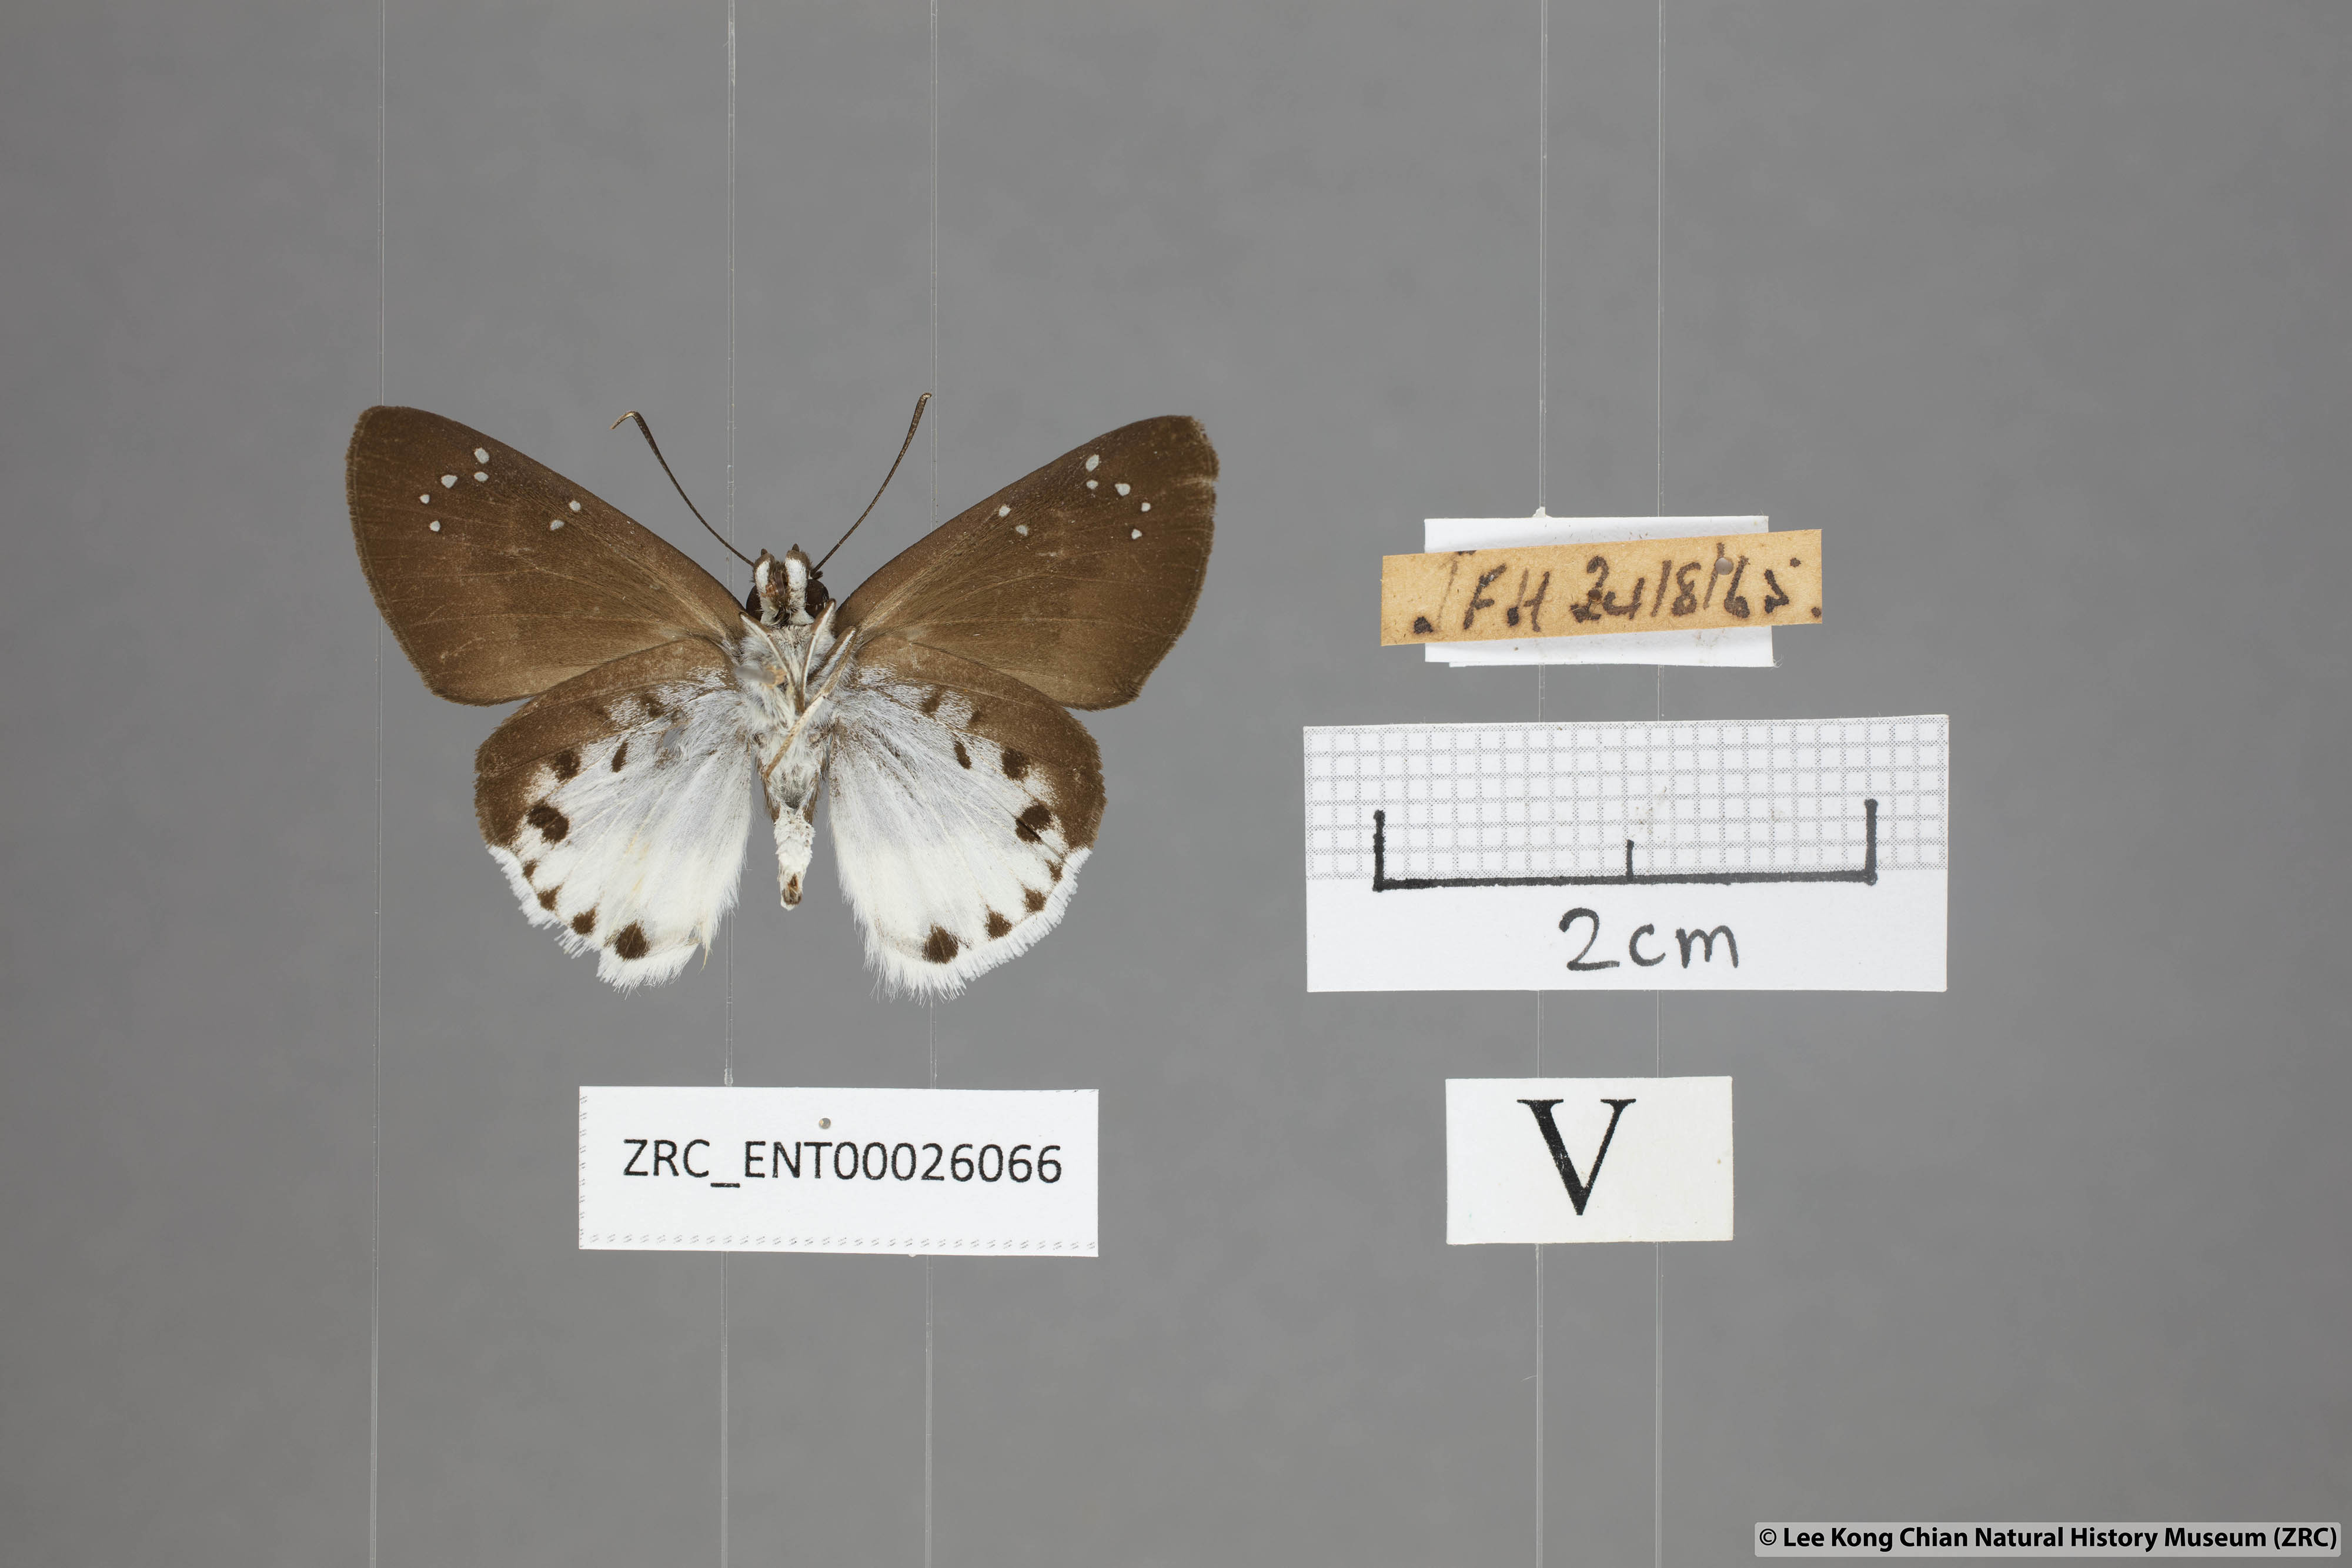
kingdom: Animalia
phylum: Arthropoda
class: Insecta
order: Lepidoptera
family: Hesperiidae
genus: Tagiades
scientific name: Tagiades waterstradti
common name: Waterstradt snow flat
